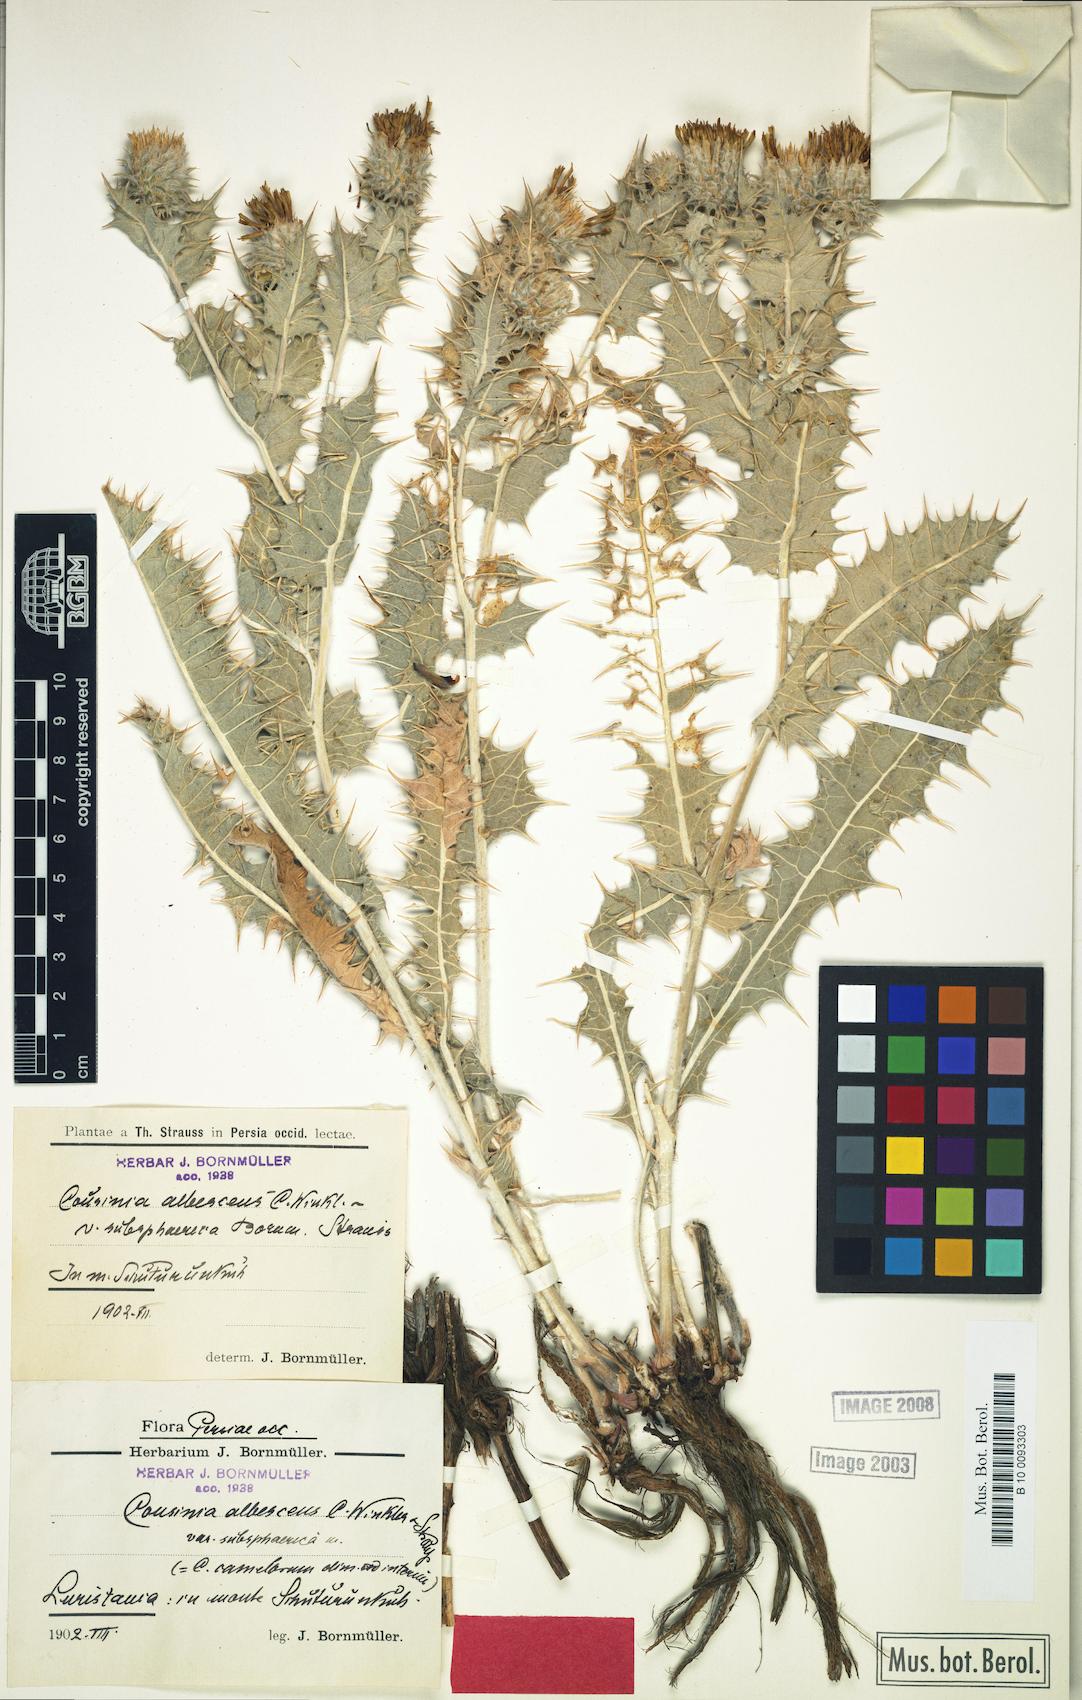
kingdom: Plantae
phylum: Tracheophyta
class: Magnoliopsida
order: Asterales
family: Asteraceae
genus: Cousinia
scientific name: Cousinia albescens
